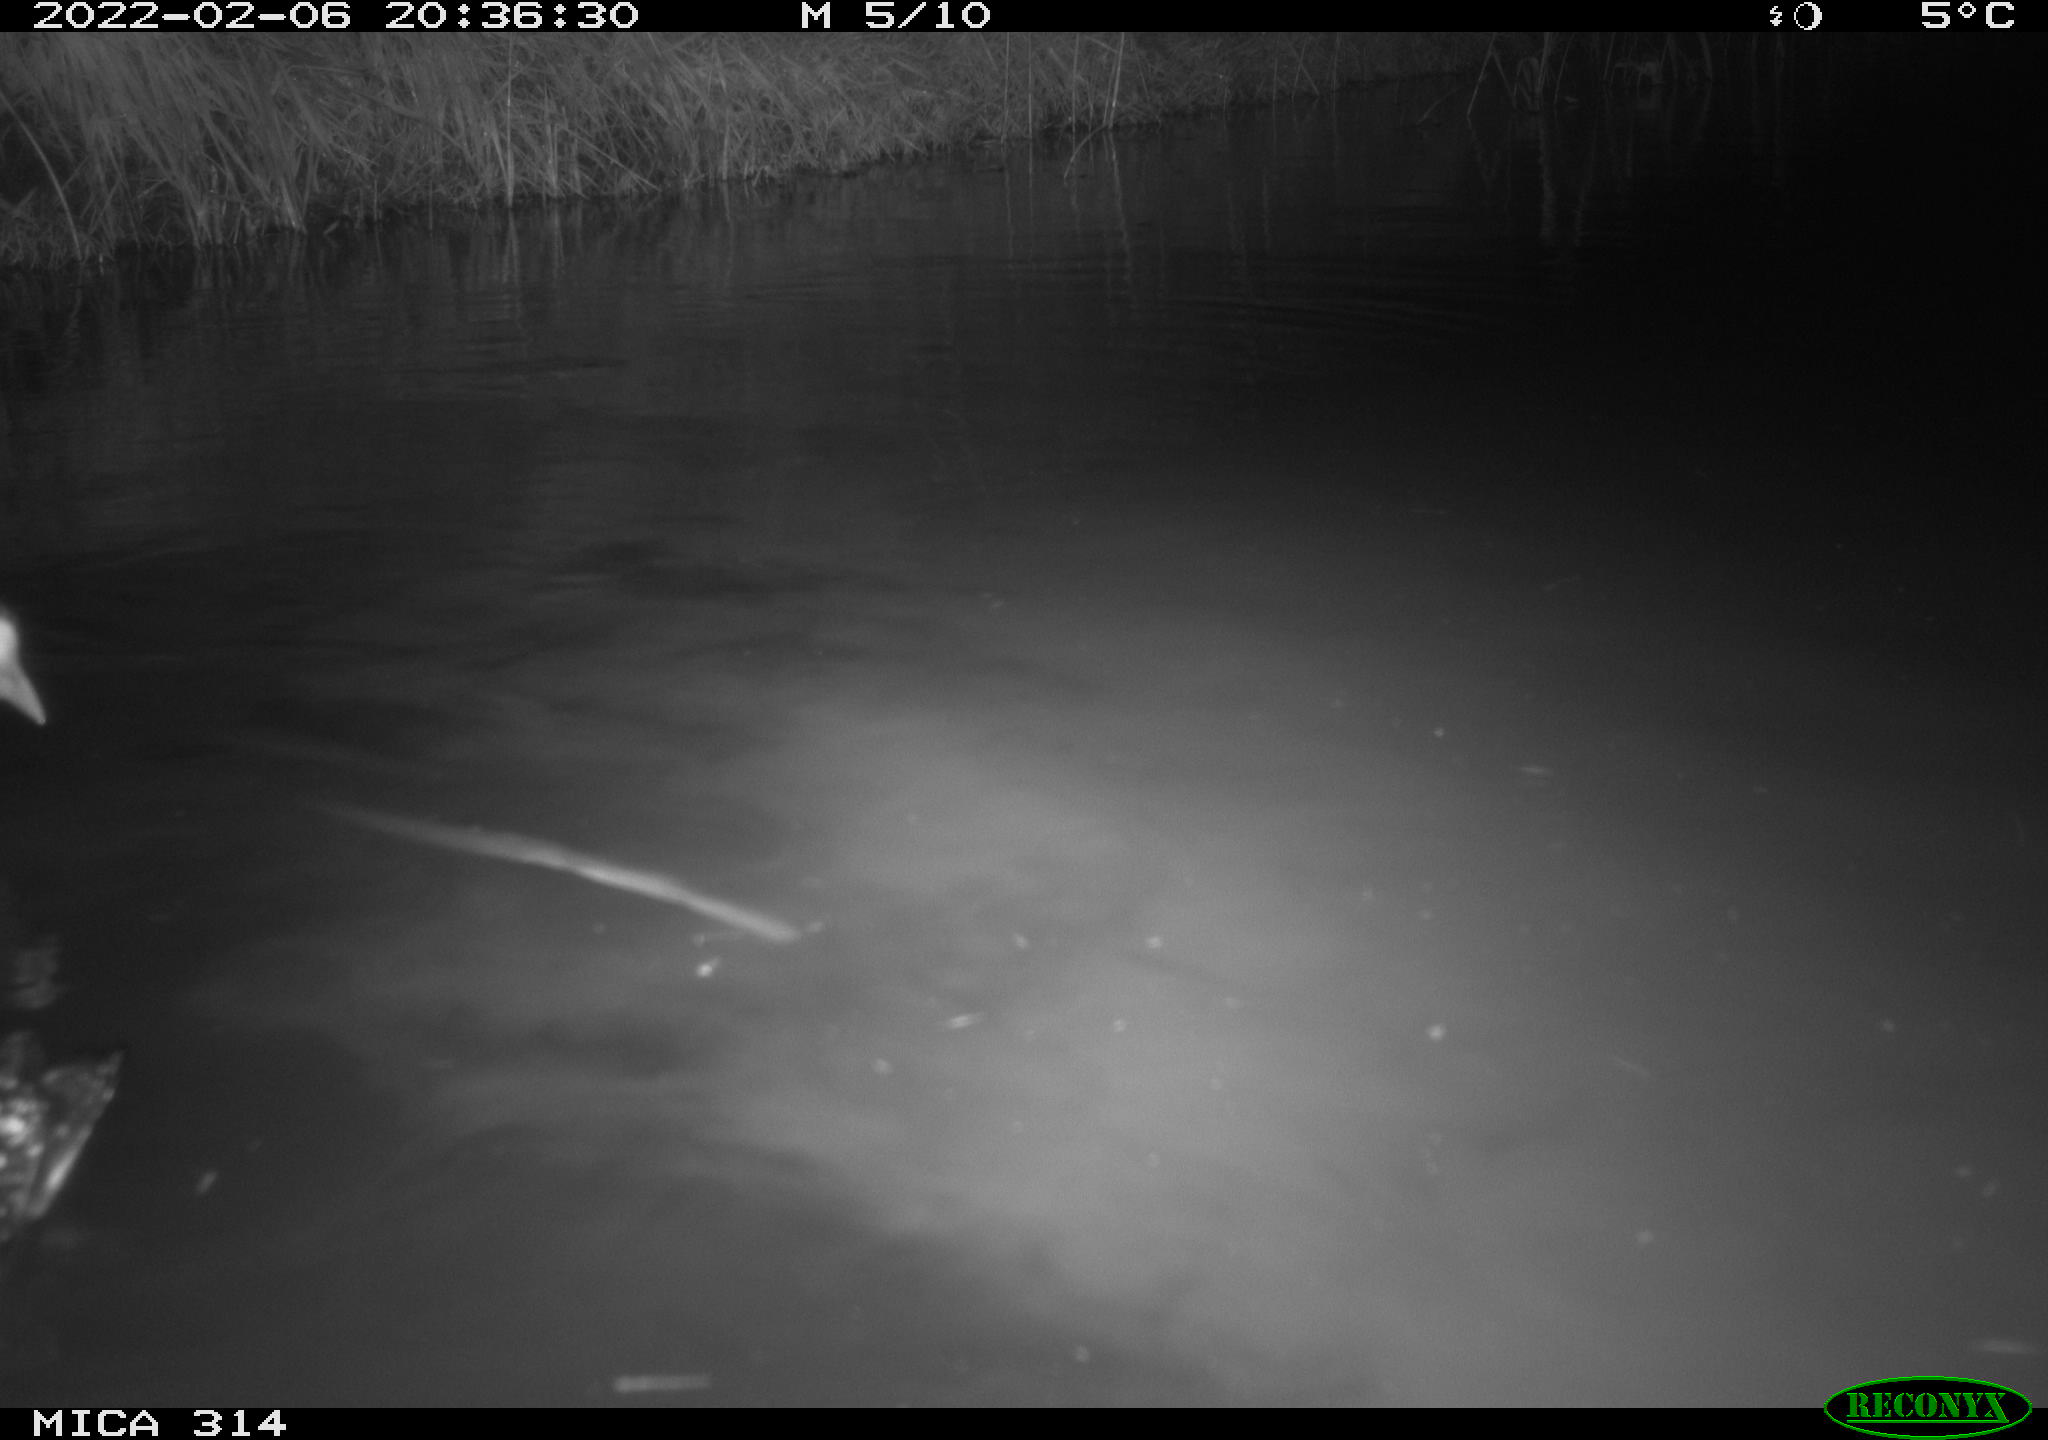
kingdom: Animalia
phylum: Chordata
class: Aves
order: Gruiformes
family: Rallidae
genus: Gallinula
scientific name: Gallinula chloropus
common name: Common moorhen
